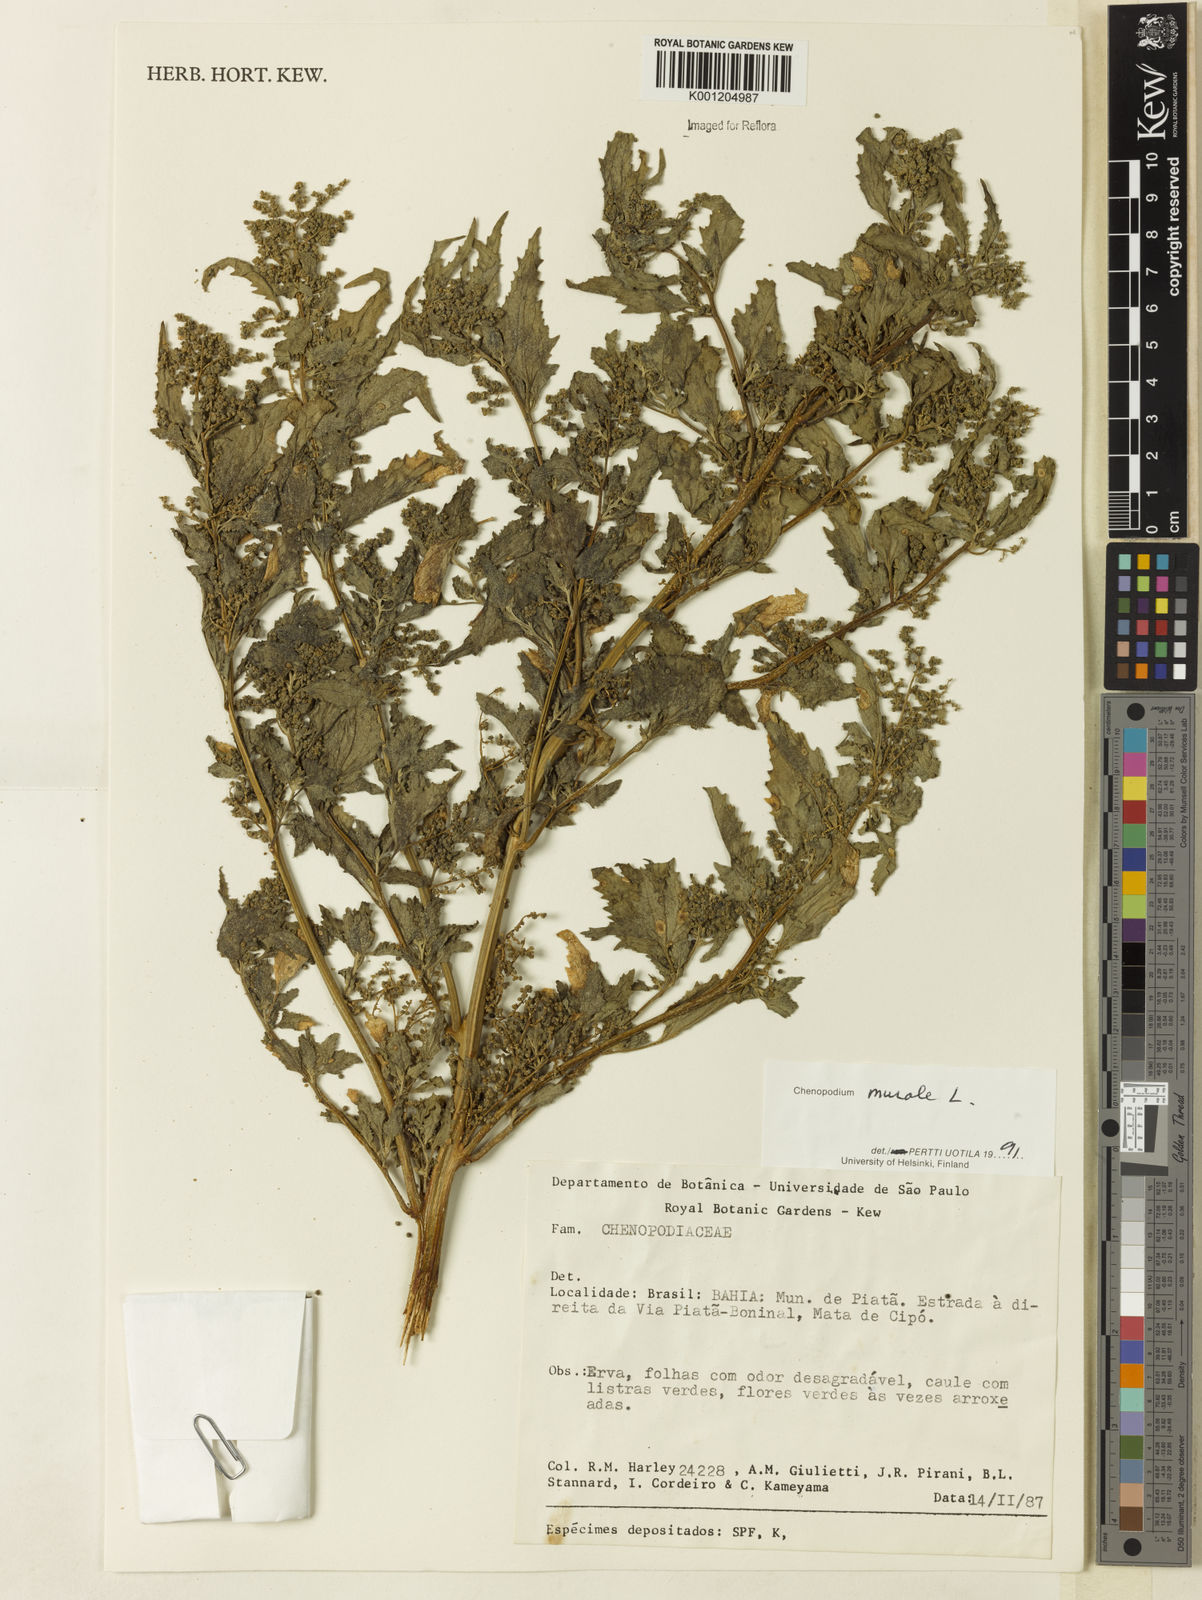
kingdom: Plantae
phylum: Tracheophyta
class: Magnoliopsida
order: Caryophyllales
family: Amaranthaceae
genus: Chenopodiastrum
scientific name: Chenopodiastrum murale
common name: Sowbane
